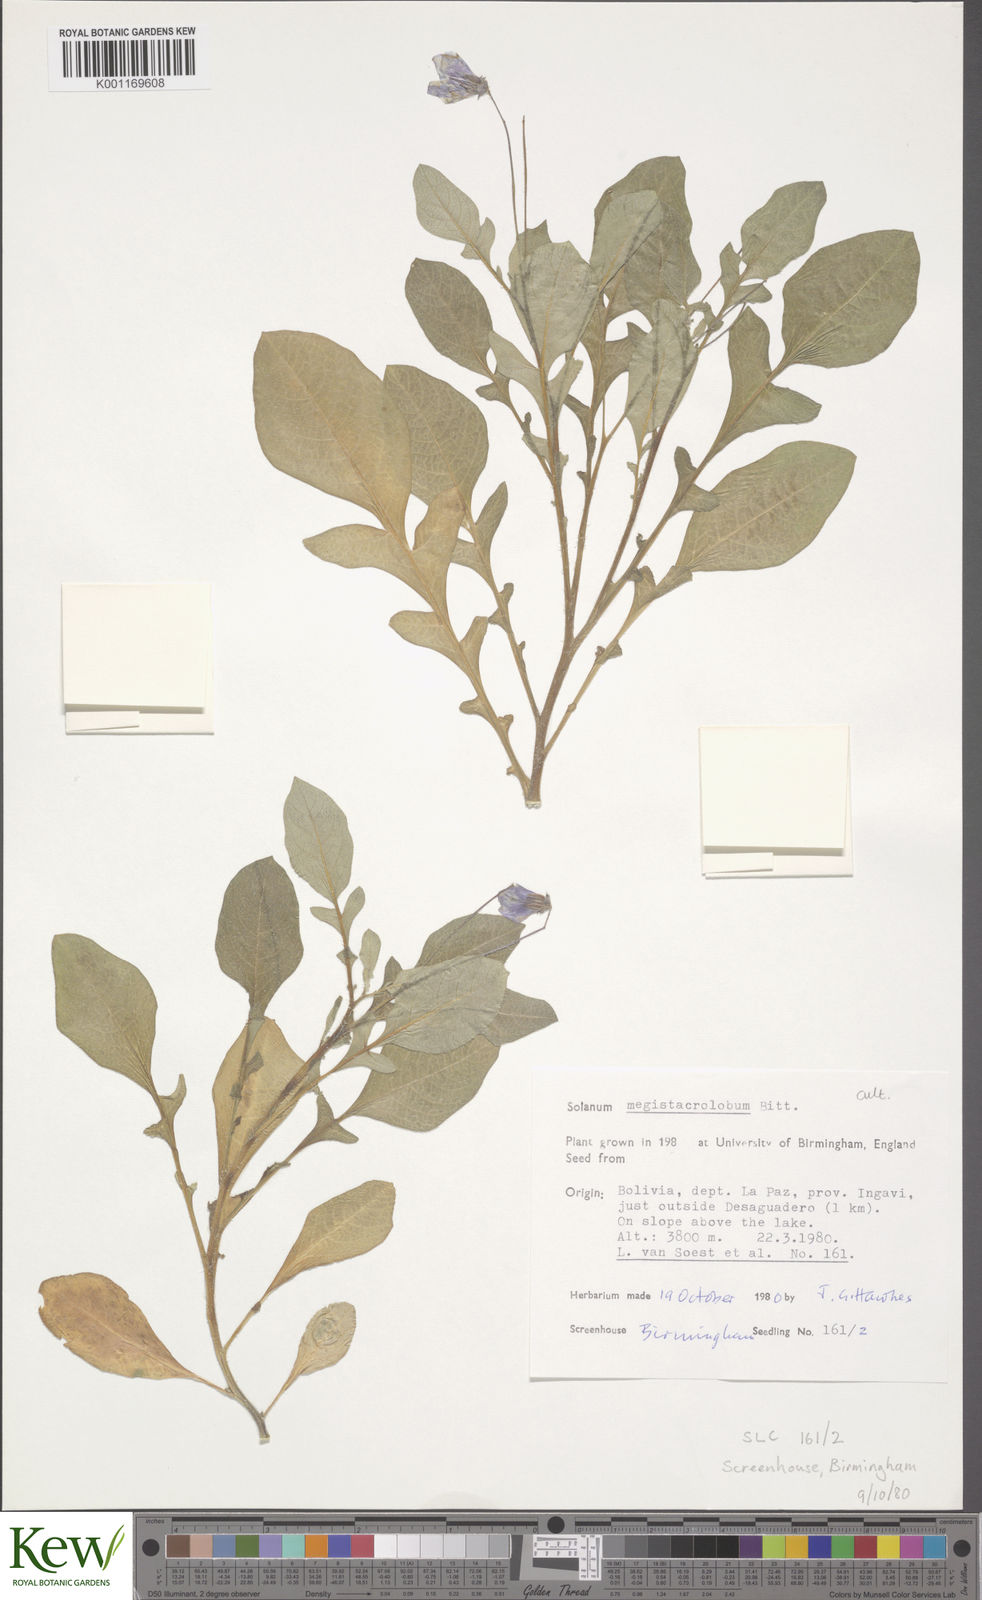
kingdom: Plantae
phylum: Tracheophyta
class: Magnoliopsida
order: Solanales
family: Solanaceae
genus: Solanum
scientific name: Solanum boliviense
